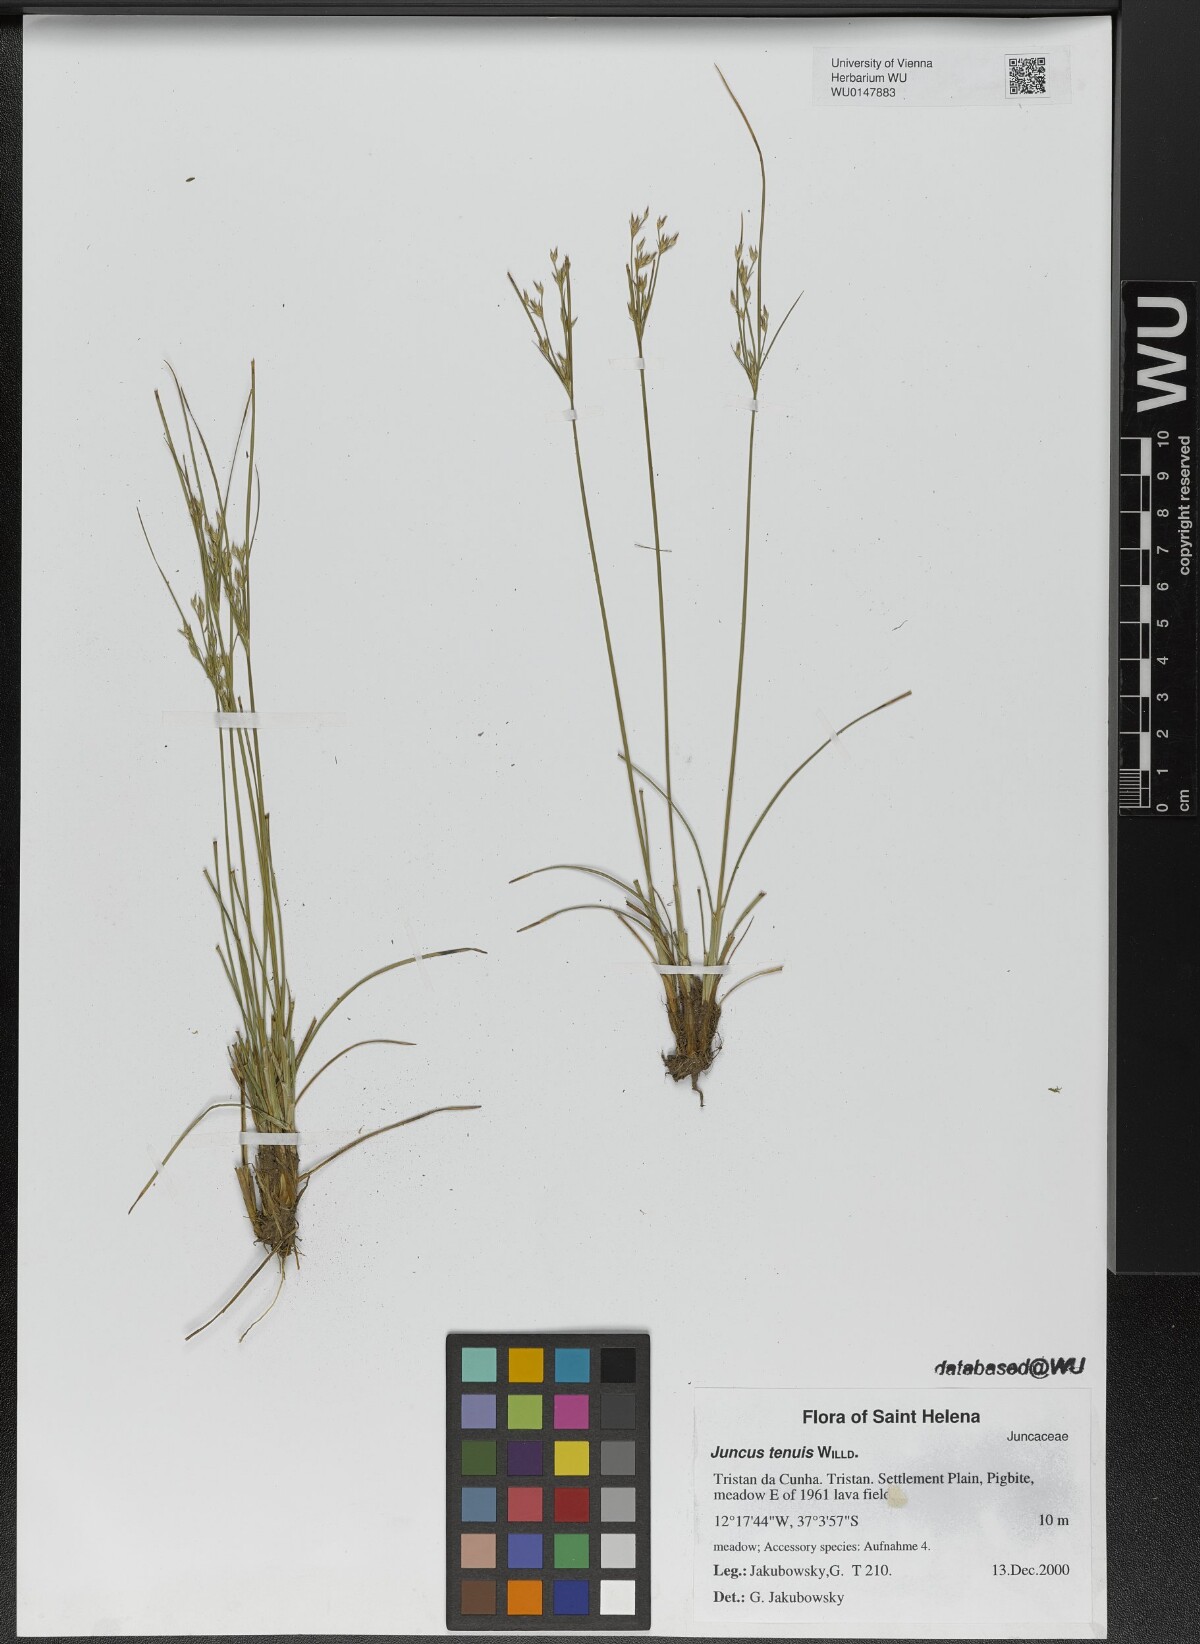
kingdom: Plantae
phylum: Tracheophyta
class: Liliopsida
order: Poales
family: Juncaceae
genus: Juncus
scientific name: Juncus tenuis
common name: Slender rush
